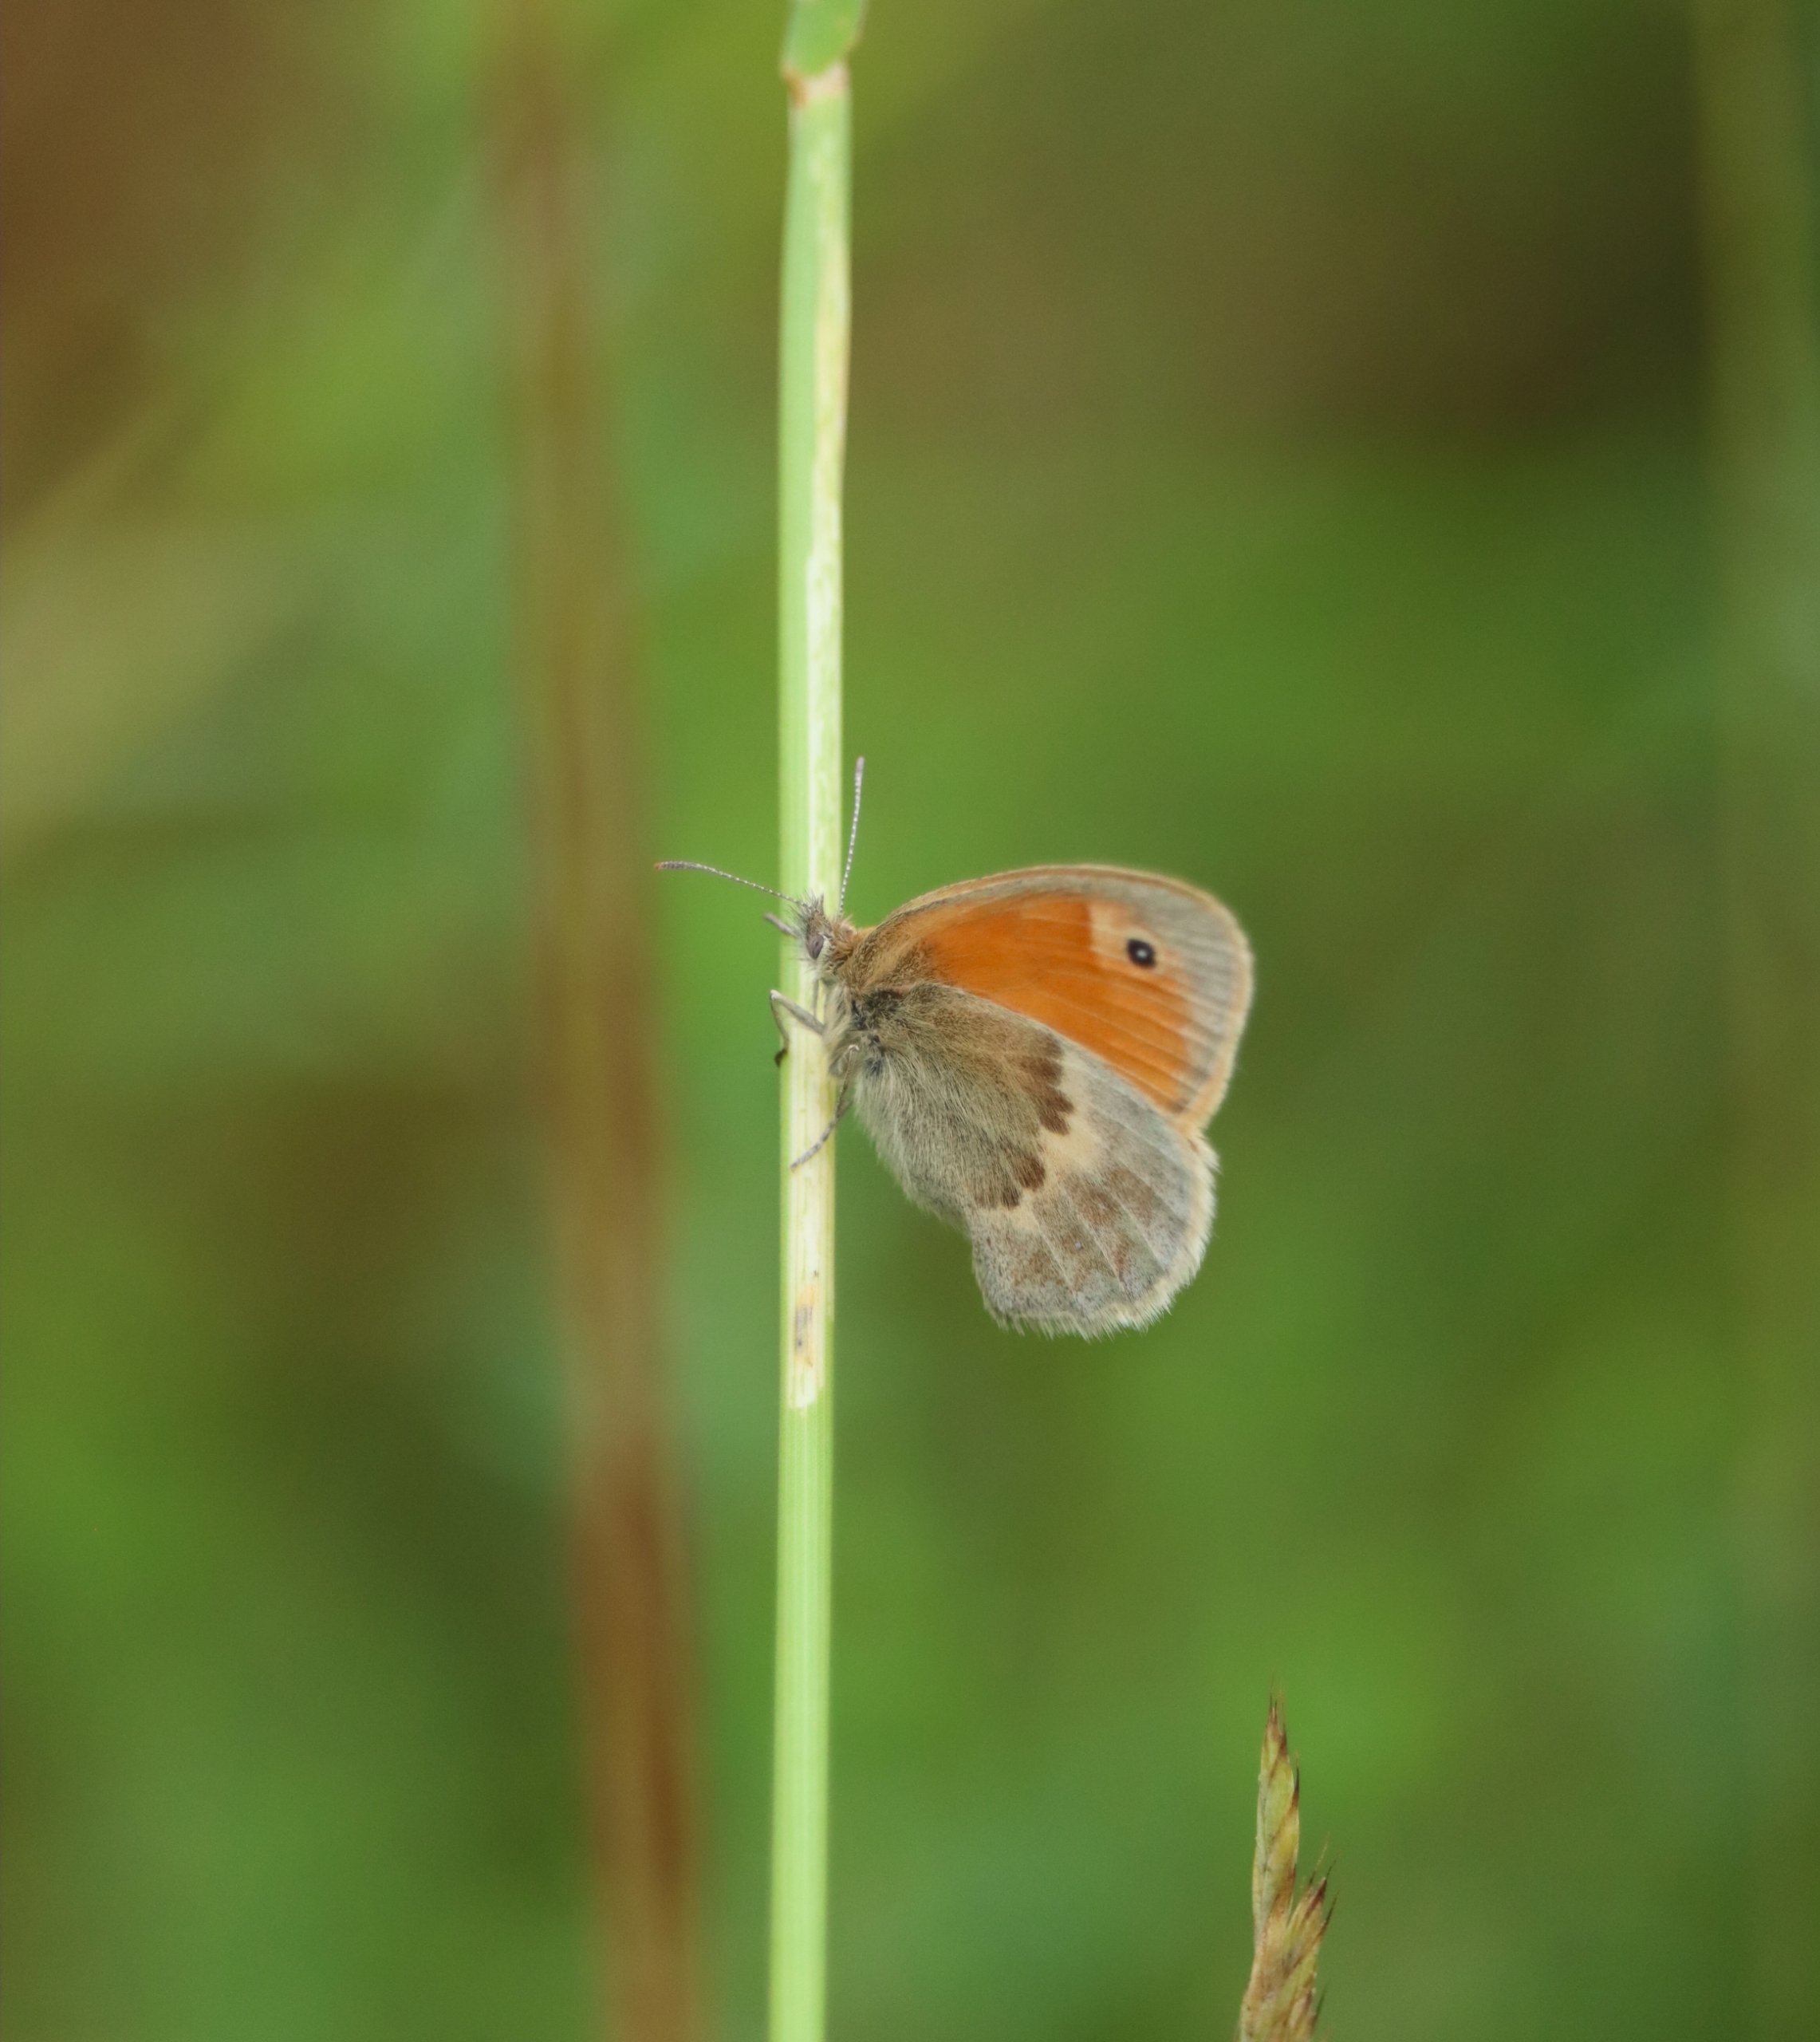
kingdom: Animalia
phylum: Arthropoda
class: Insecta
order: Lepidoptera
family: Nymphalidae
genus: Coenonympha
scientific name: Coenonympha pamphilus
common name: Okkergul randøje
